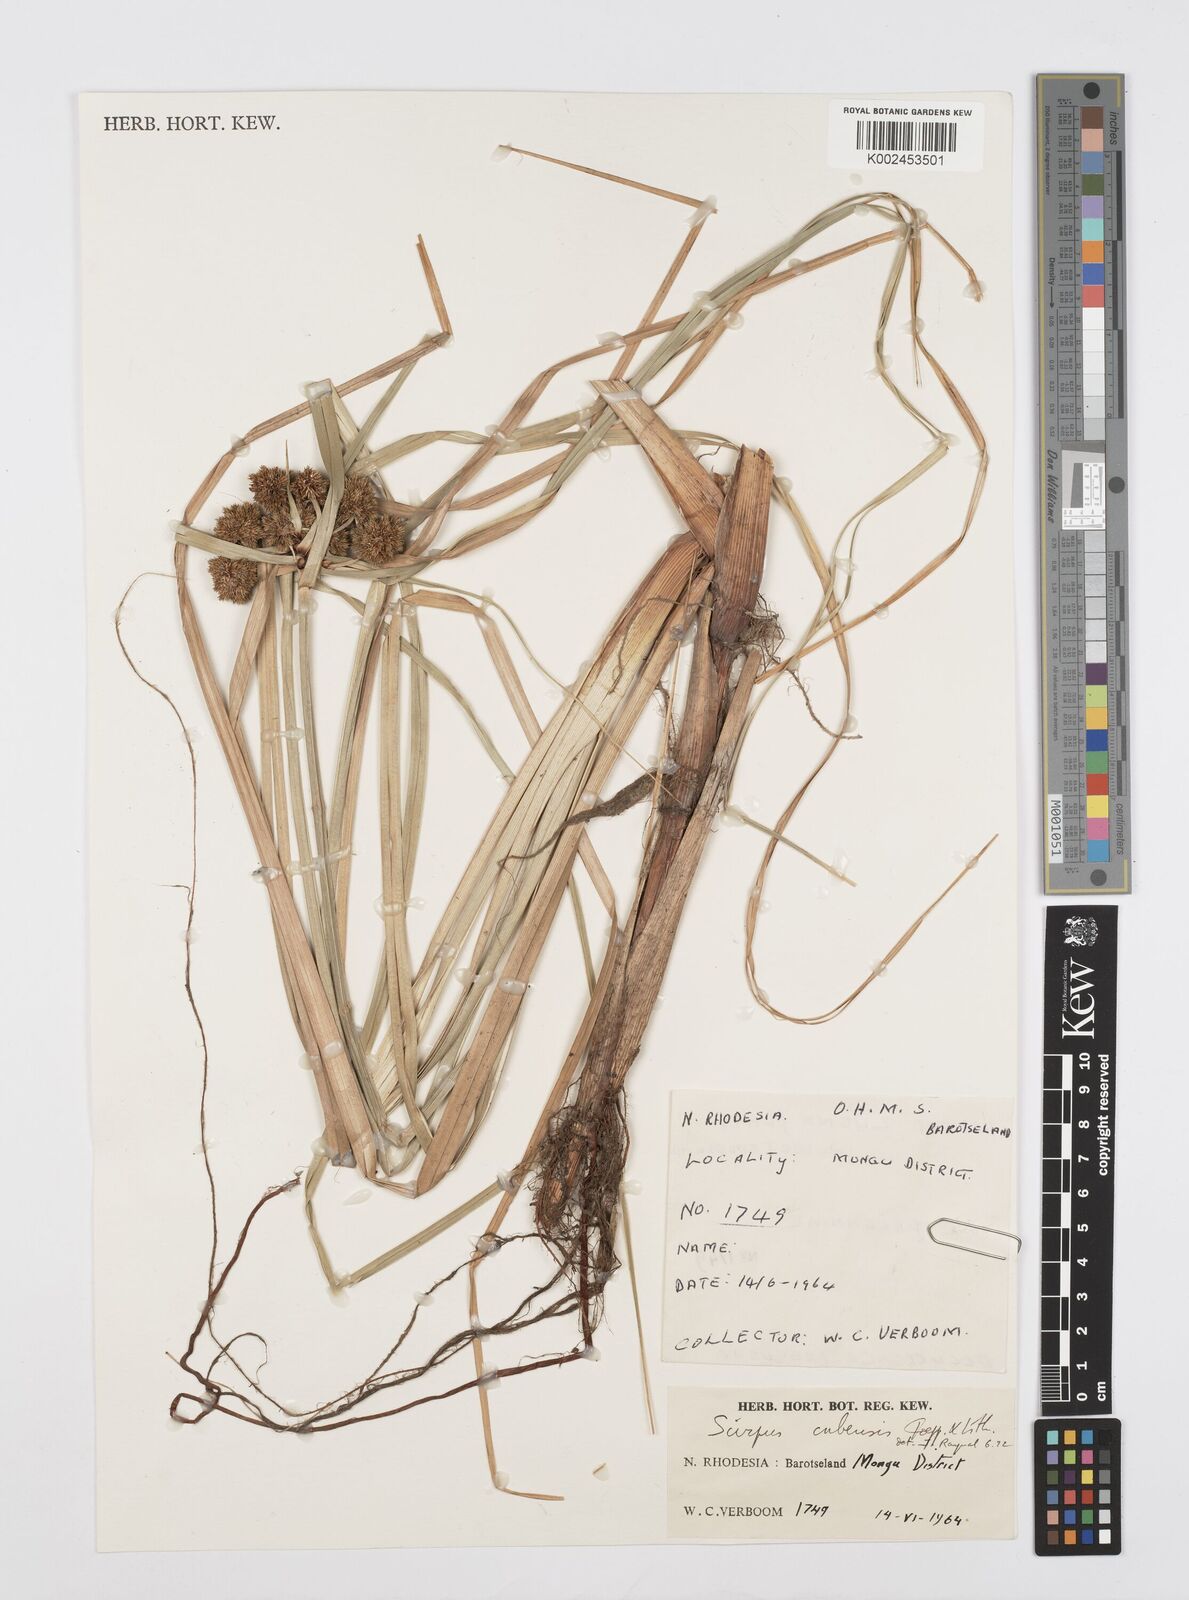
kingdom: Plantae
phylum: Tracheophyta
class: Liliopsida
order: Poales
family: Cyperaceae
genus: Cyperus
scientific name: Cyperus elegans
